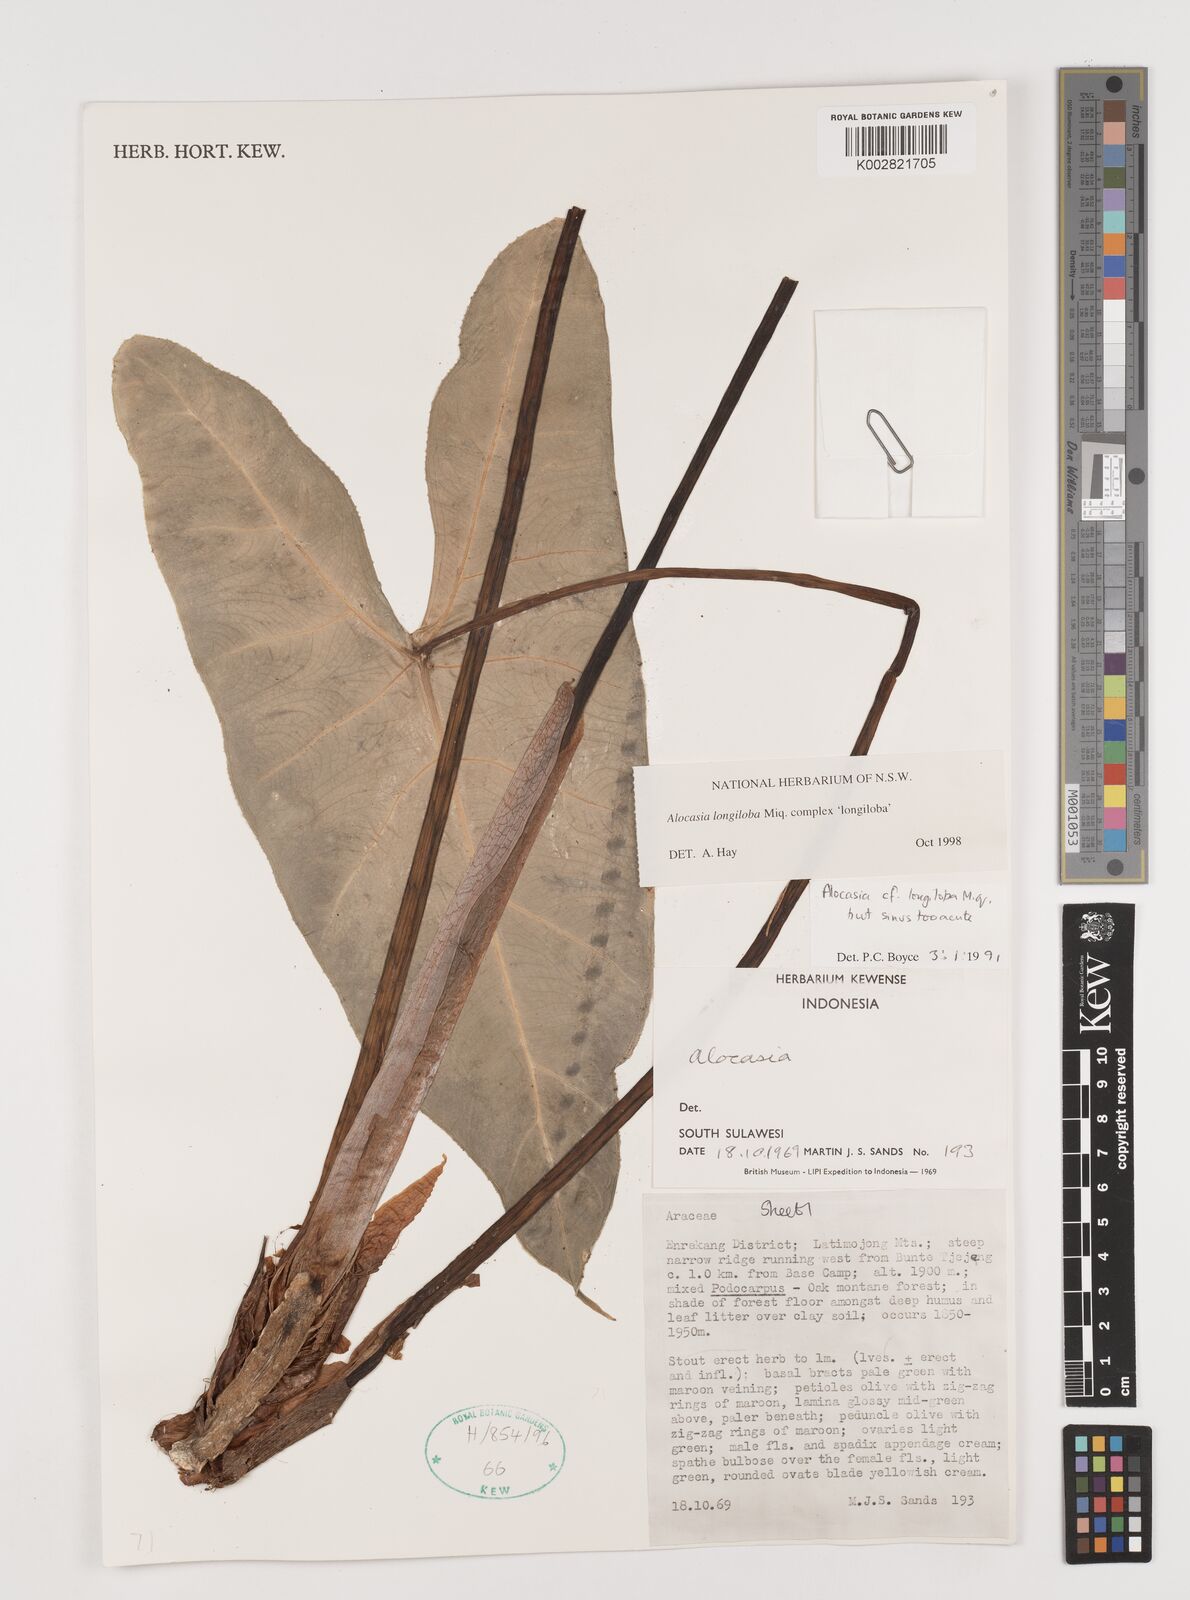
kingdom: Plantae
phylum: Tracheophyta
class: Liliopsida
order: Alismatales
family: Araceae
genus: Alocasia
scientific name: Alocasia longiloba
